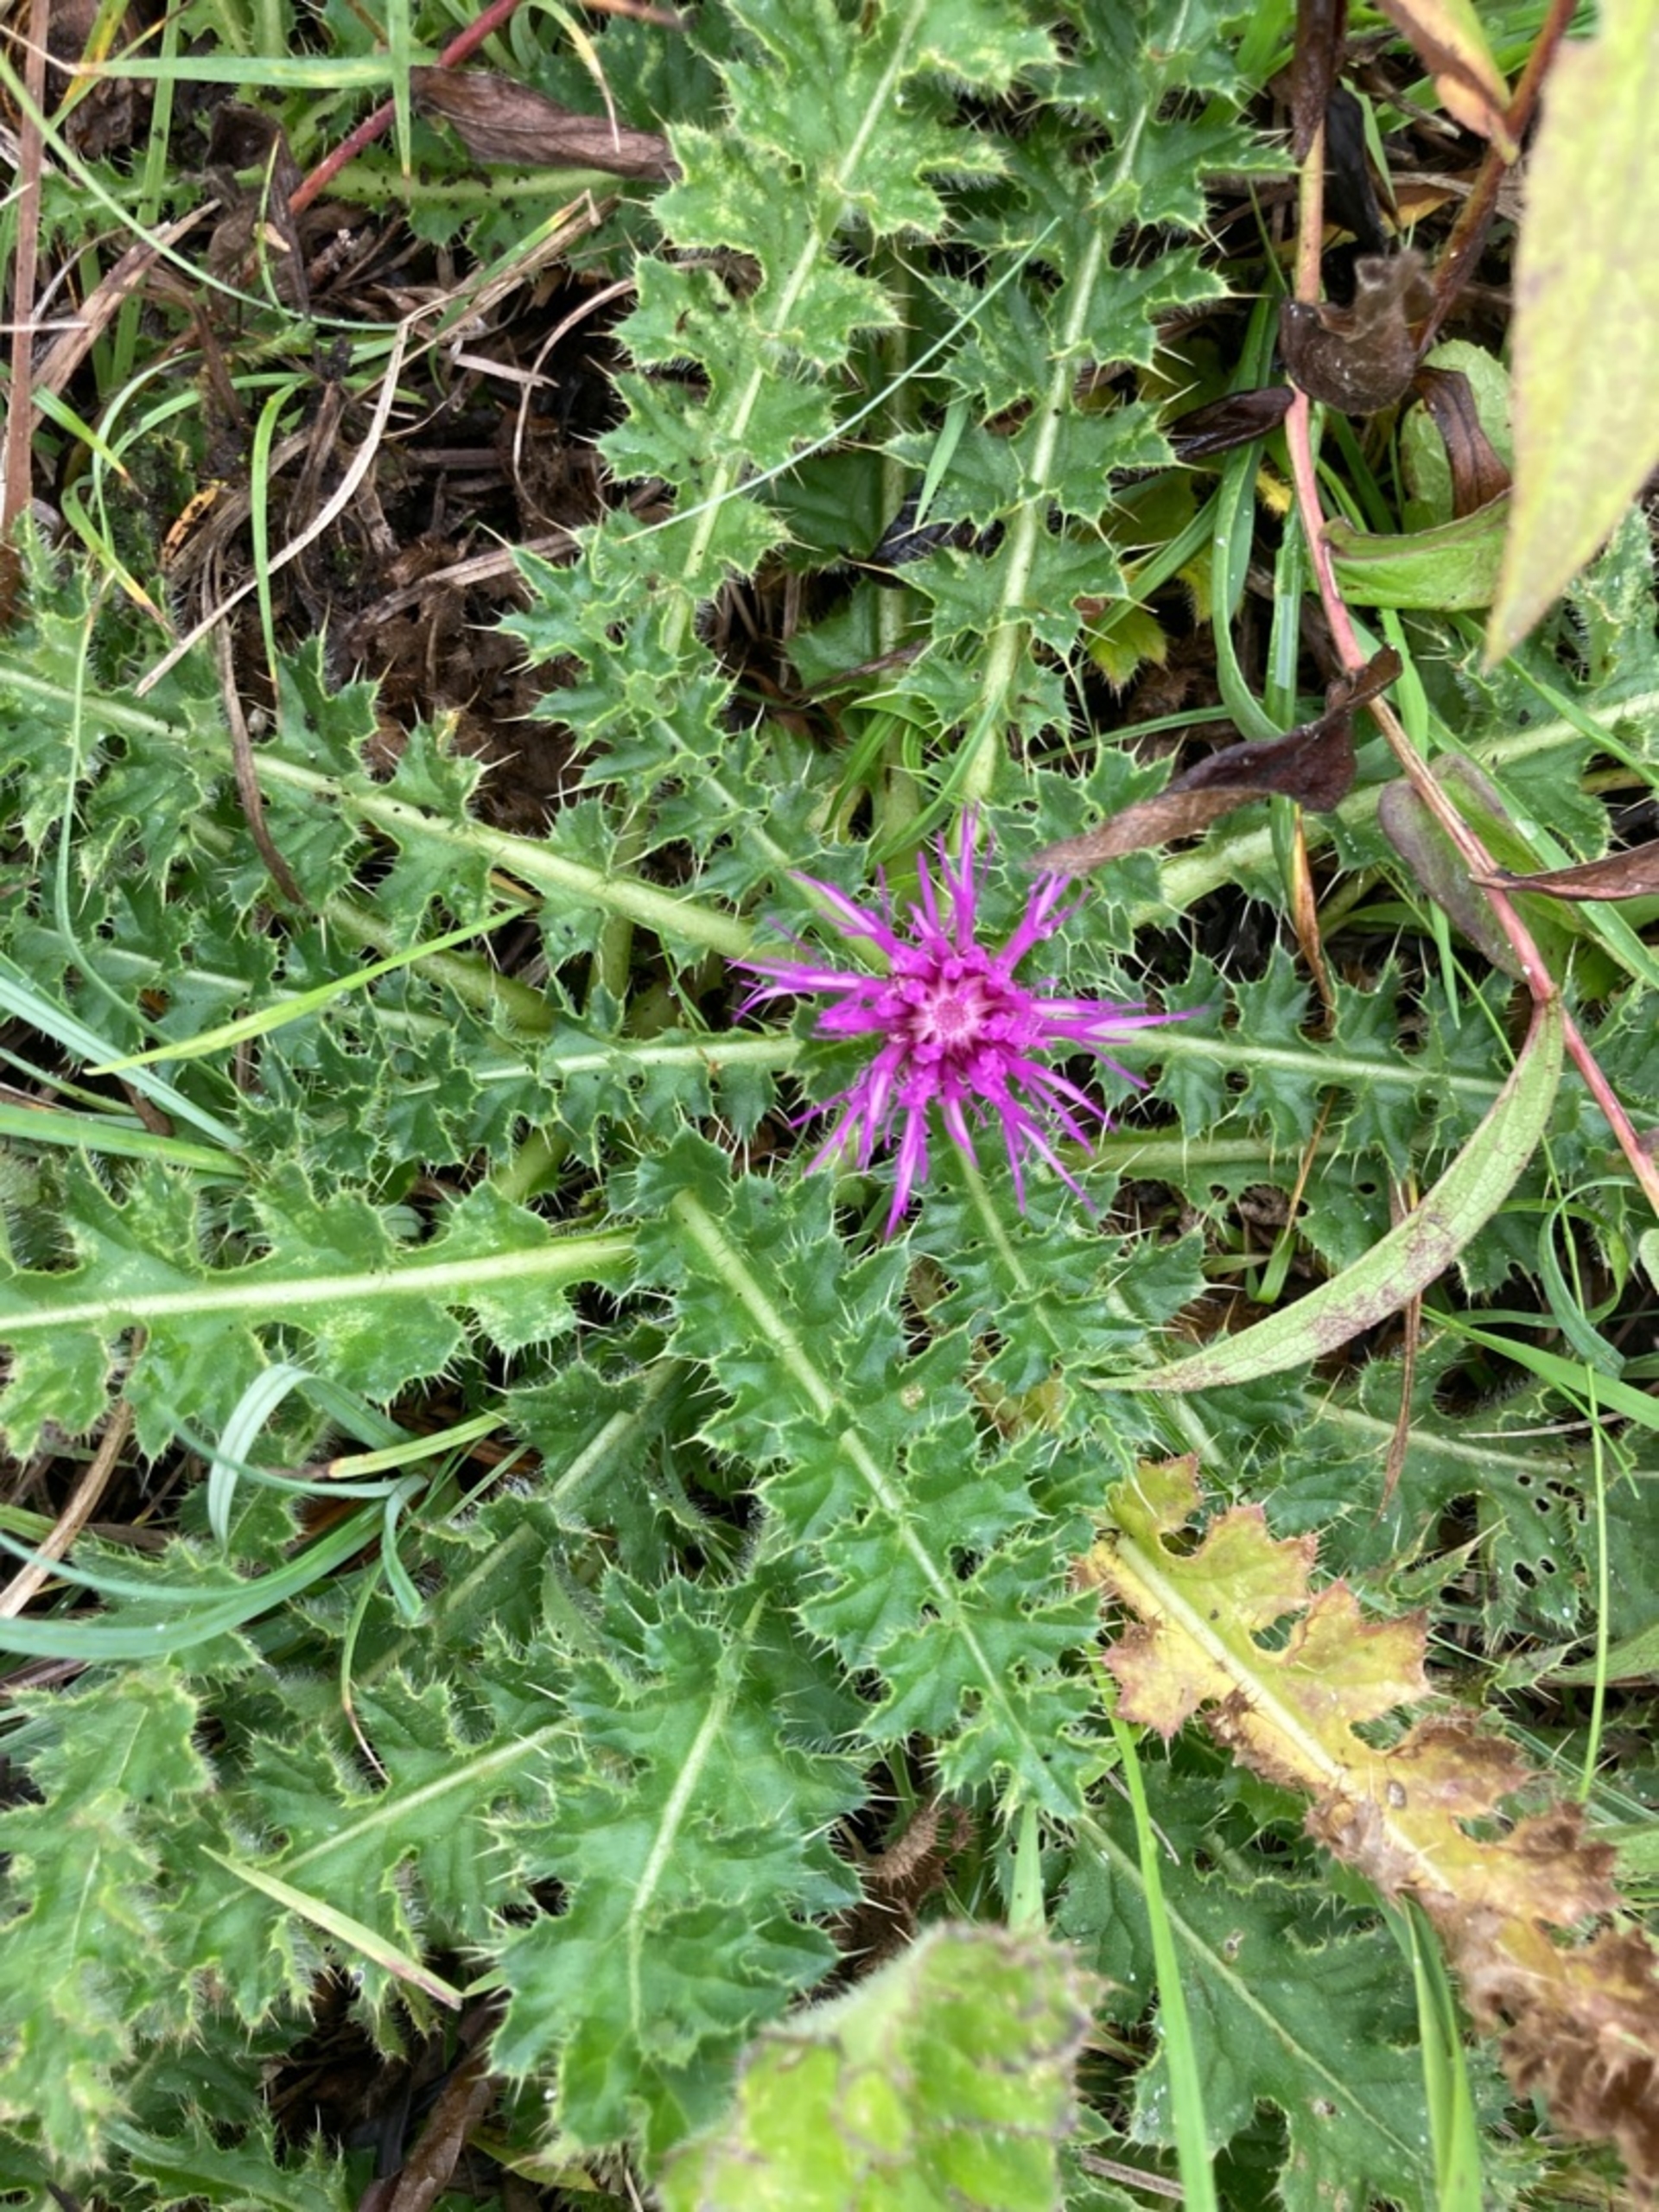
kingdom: Plantae
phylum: Tracheophyta
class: Magnoliopsida
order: Asterales
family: Asteraceae
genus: Cirsium
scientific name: Cirsium acaule
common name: Lav tidsel
